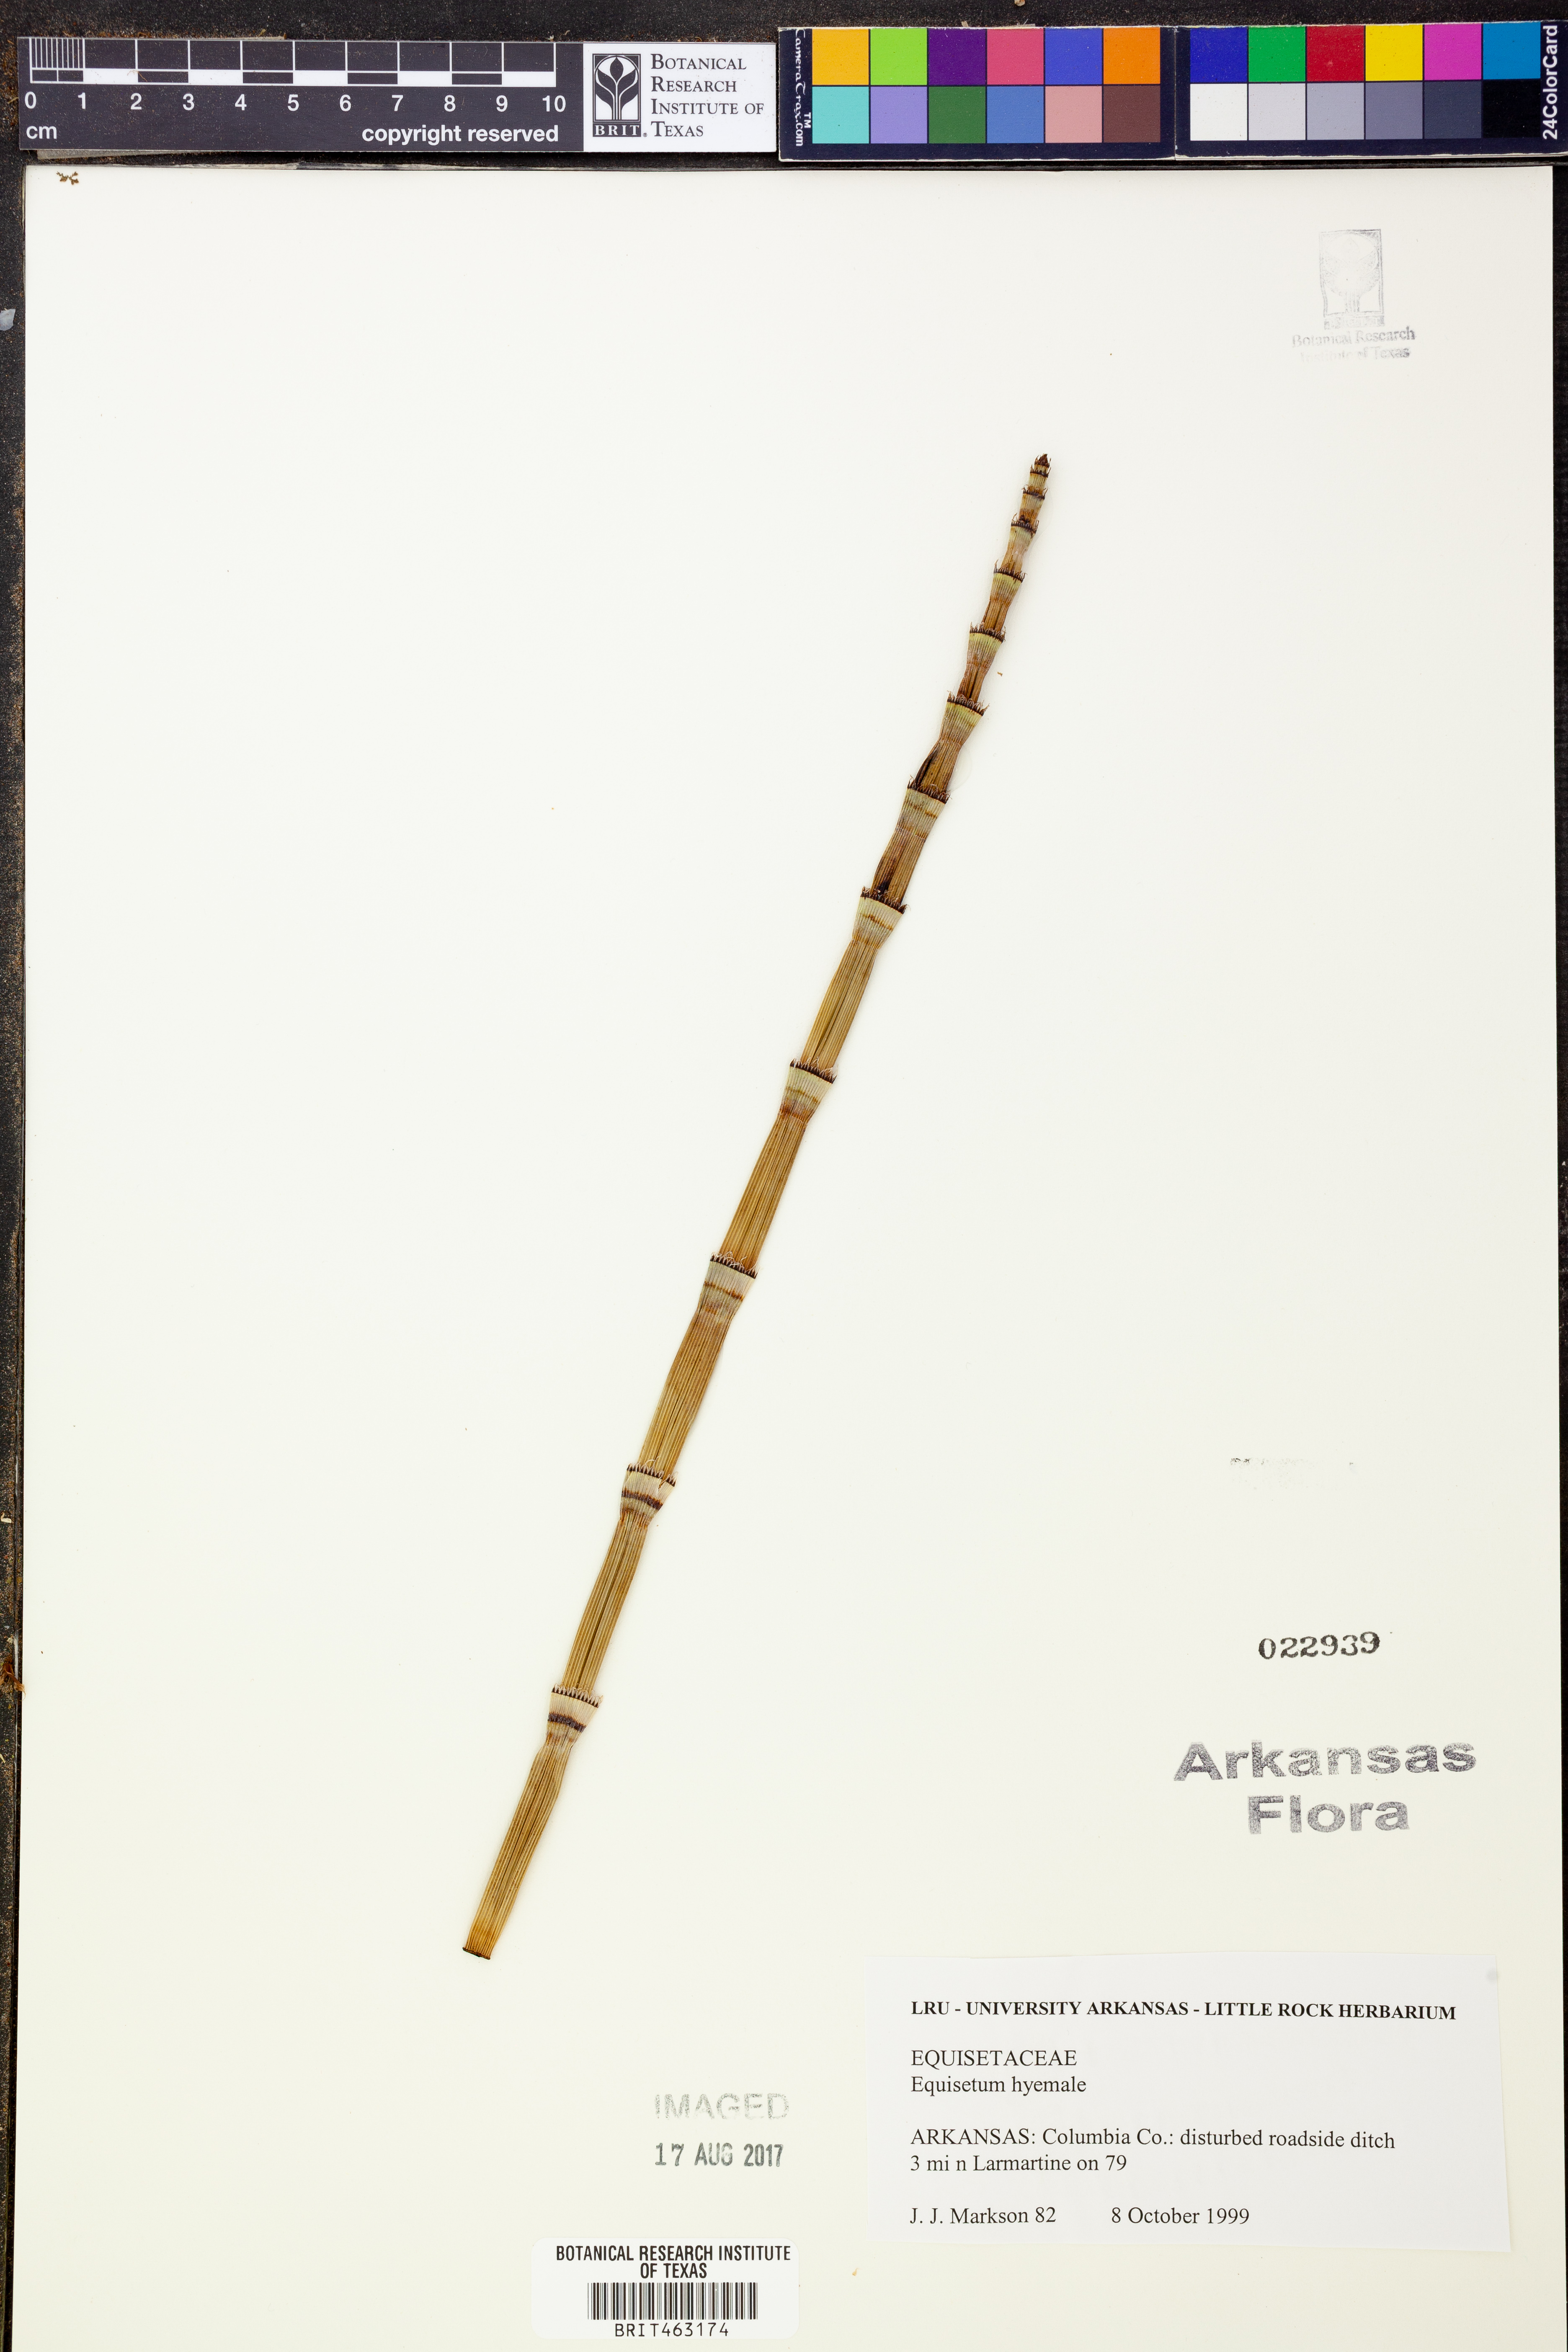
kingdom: Plantae
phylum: Tracheophyta
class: Polypodiopsida
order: Equisetales
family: Equisetaceae
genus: Equisetum
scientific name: Equisetum hyemale
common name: Rough horsetail
